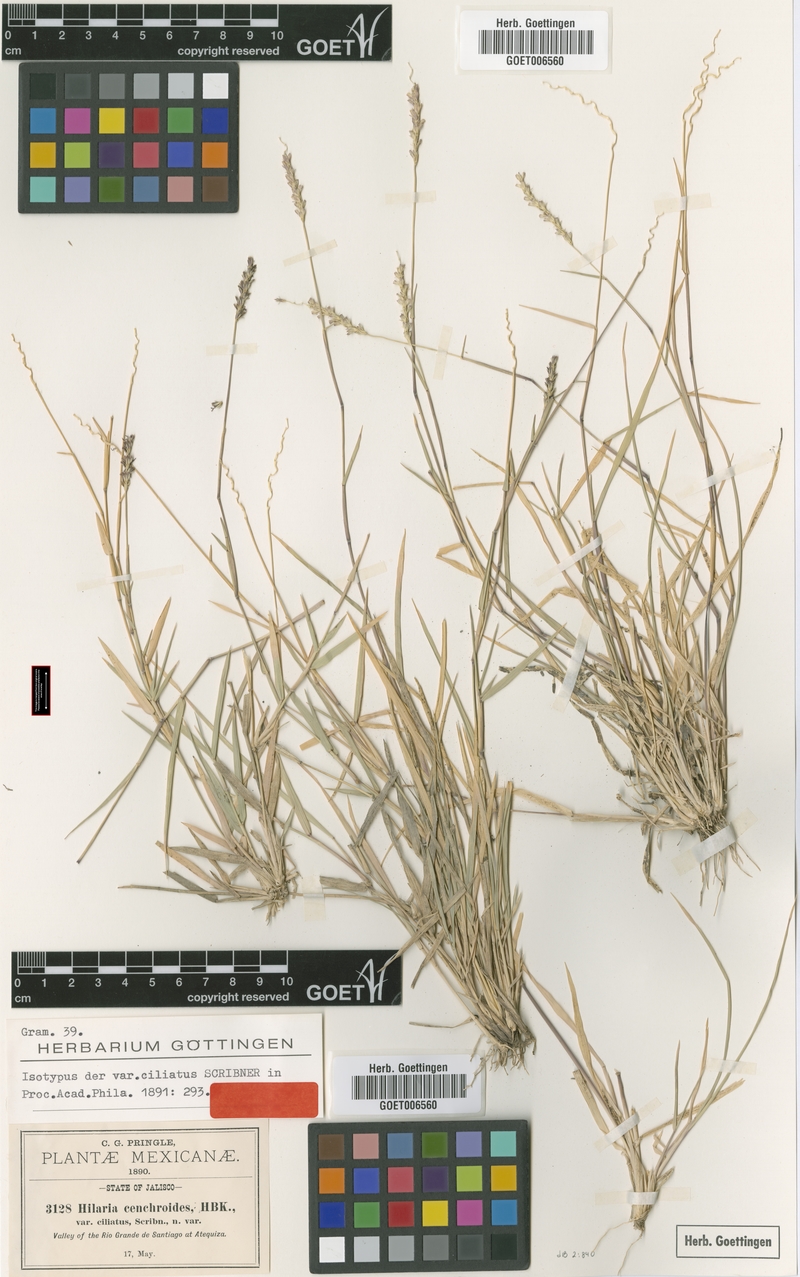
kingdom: Plantae
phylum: Tracheophyta
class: Liliopsida
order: Poales
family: Poaceae
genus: Hilaria
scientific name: Hilaria ciliata
